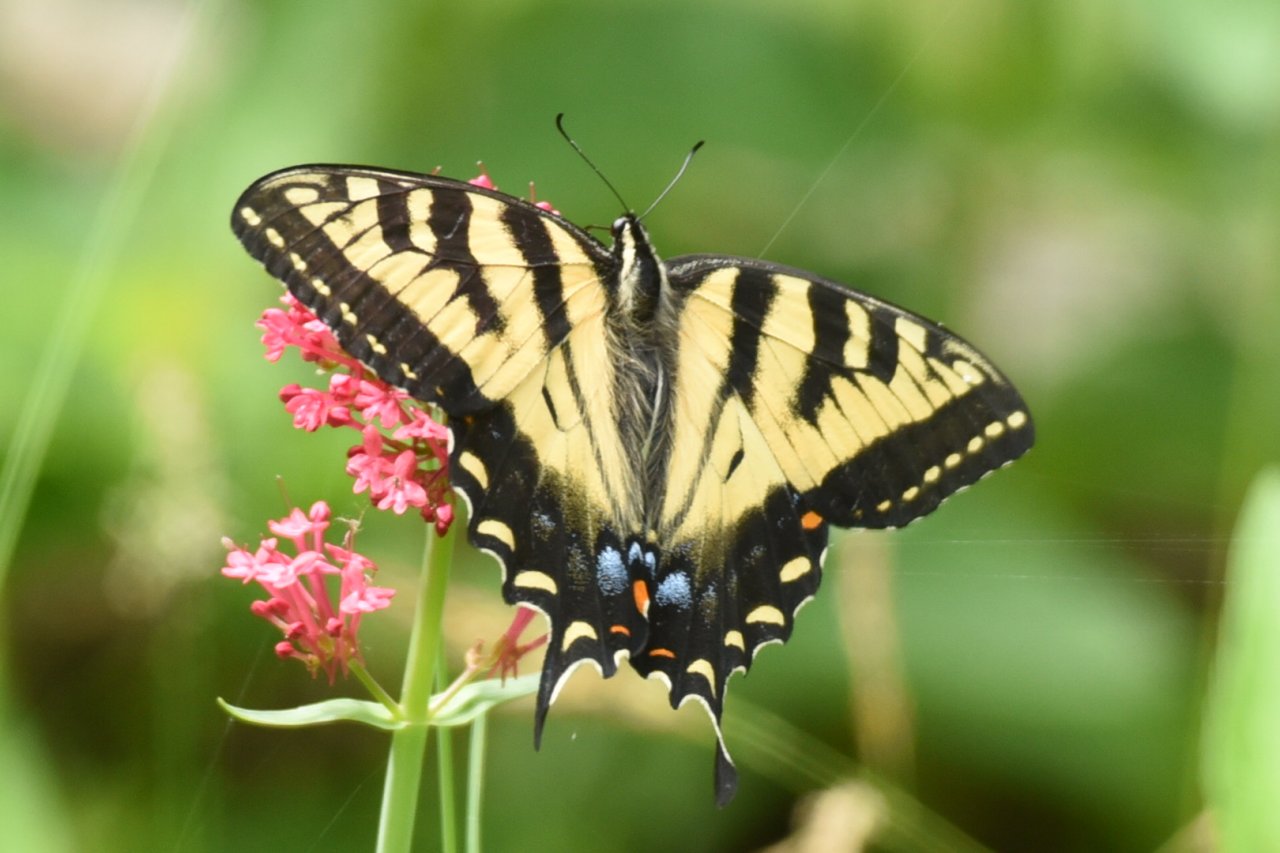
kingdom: Animalia
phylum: Arthropoda
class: Insecta
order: Lepidoptera
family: Papilionidae
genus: Pterourus
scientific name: Pterourus glaucus
